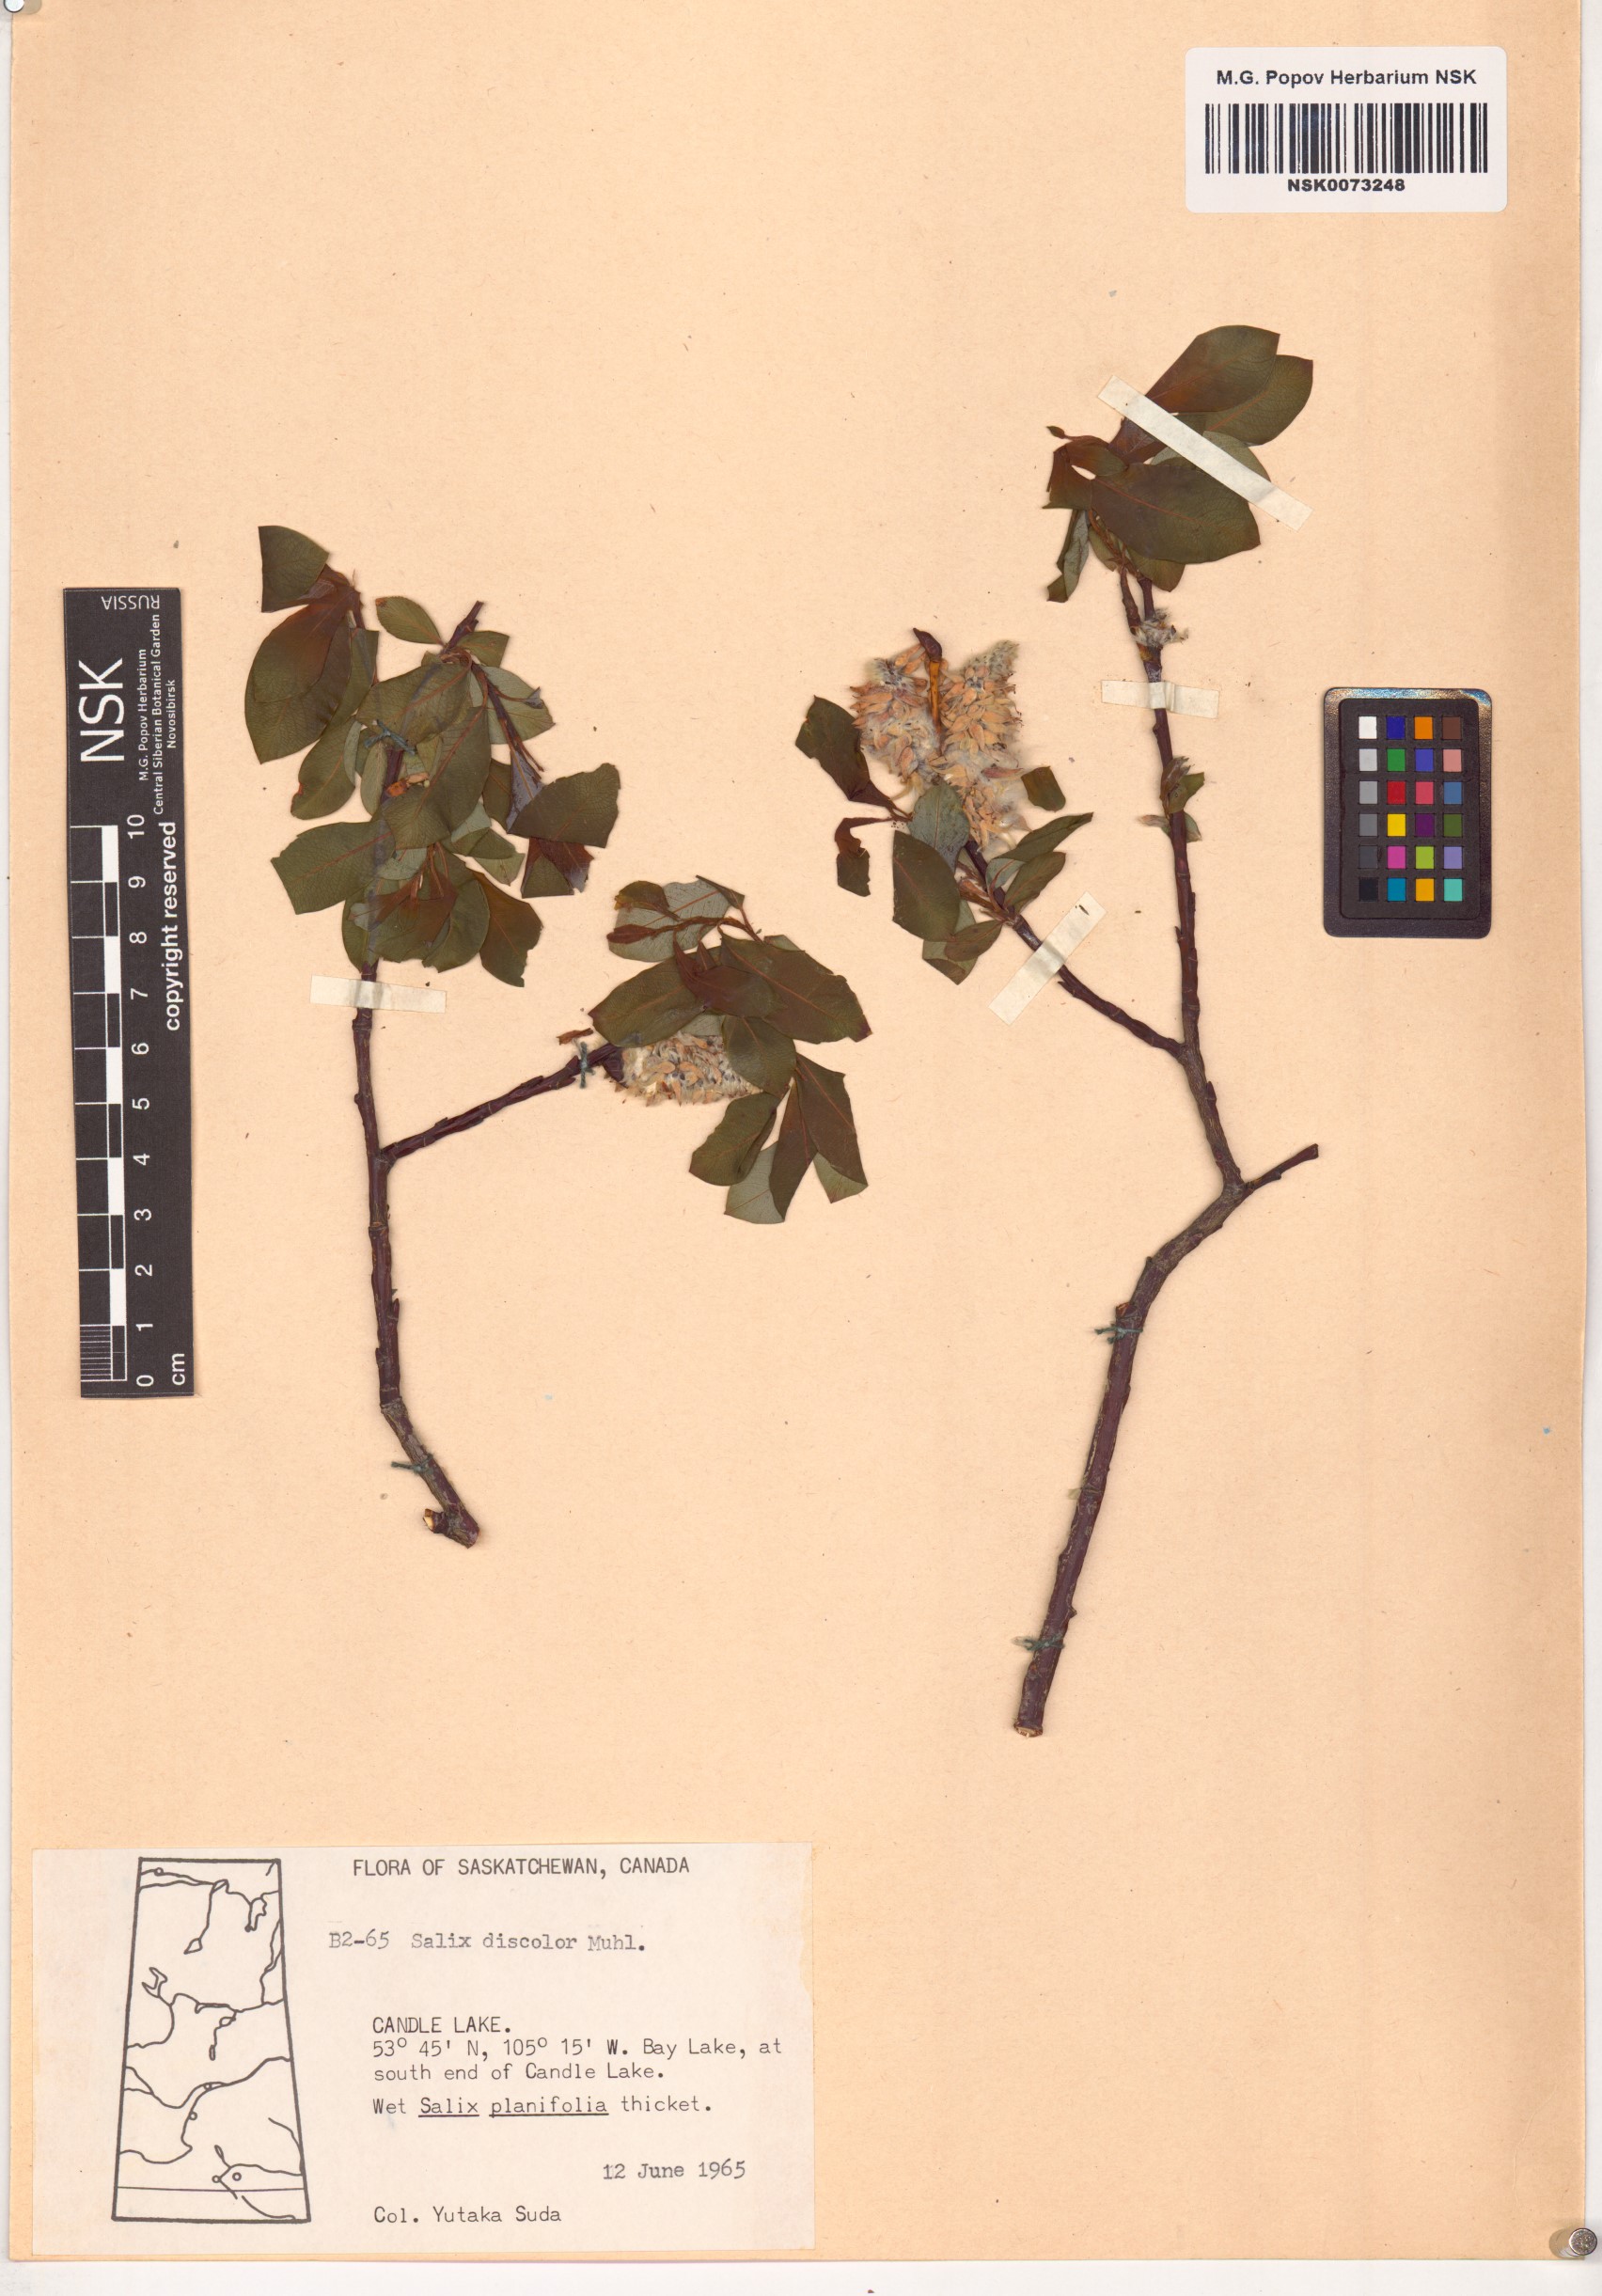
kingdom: Plantae
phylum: Tracheophyta
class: Magnoliopsida
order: Malpighiales
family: Salicaceae
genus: Salix
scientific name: Salix discolor
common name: Glaucous willow
